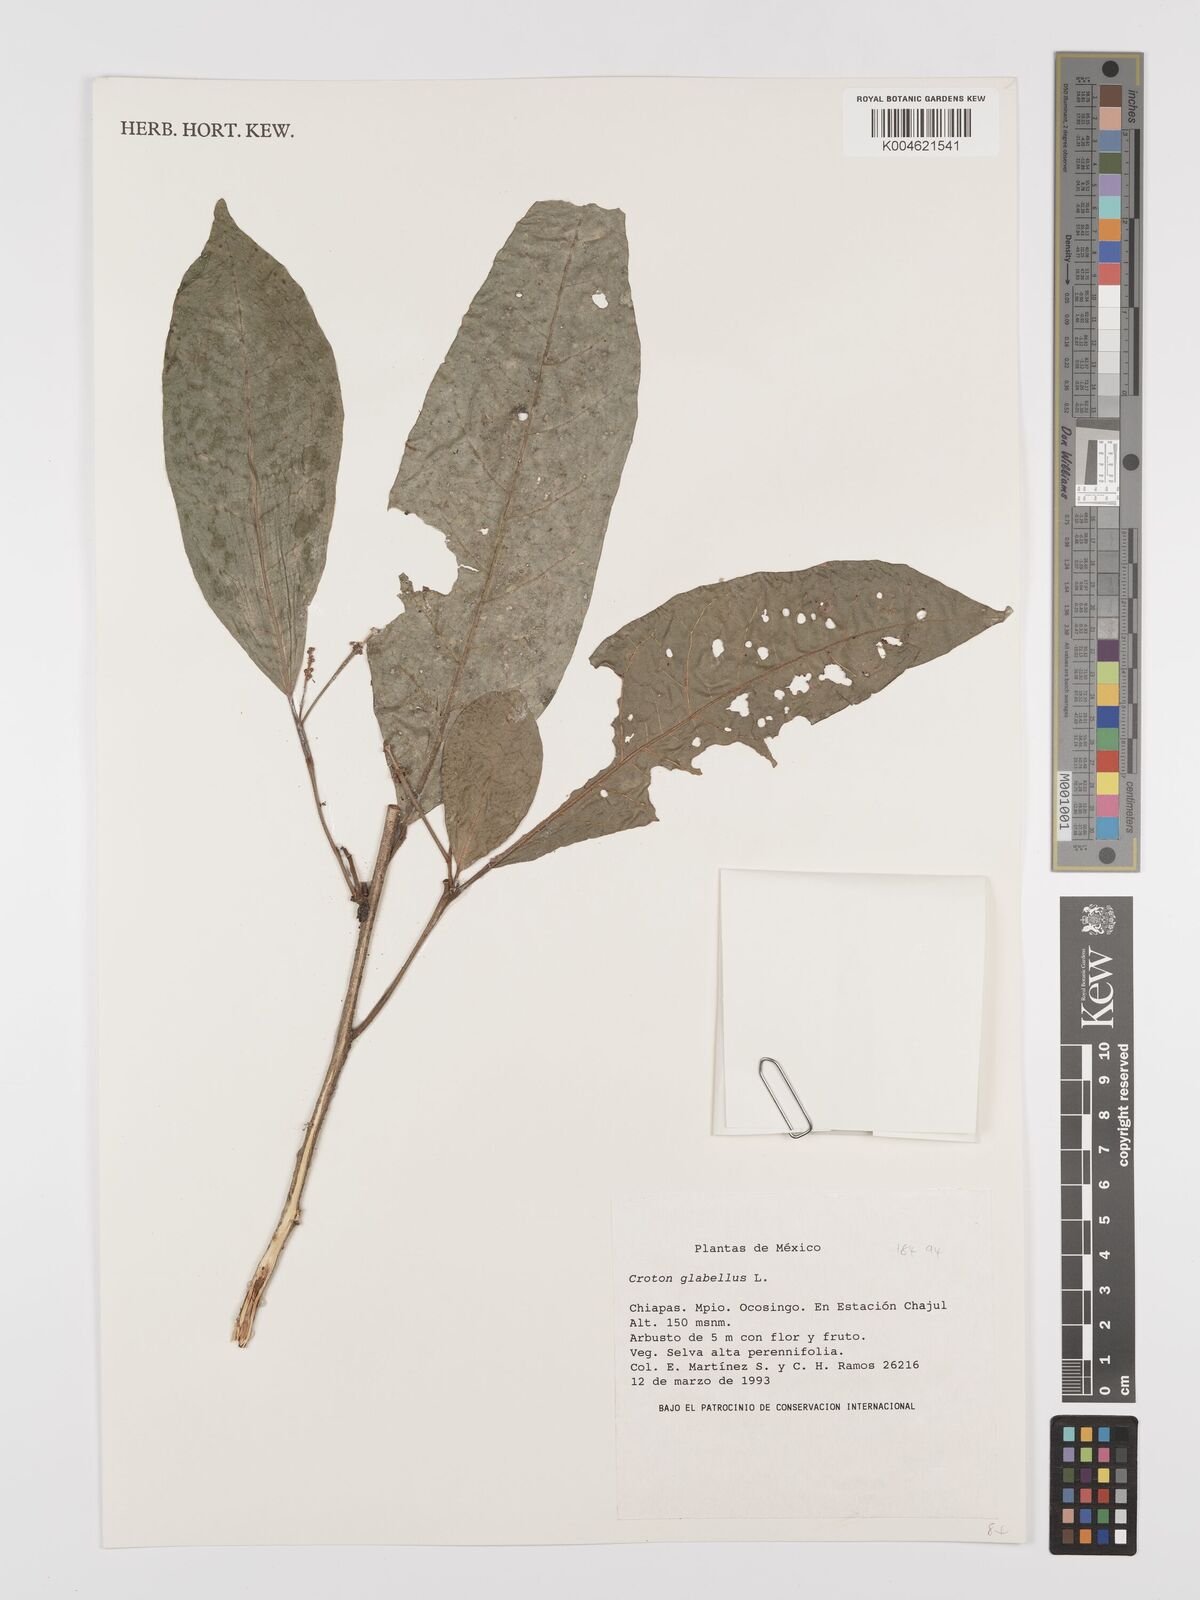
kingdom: Plantae
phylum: Tracheophyta
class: Magnoliopsida
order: Malpighiales
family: Euphorbiaceae
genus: Croton
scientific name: Croton glabellus
